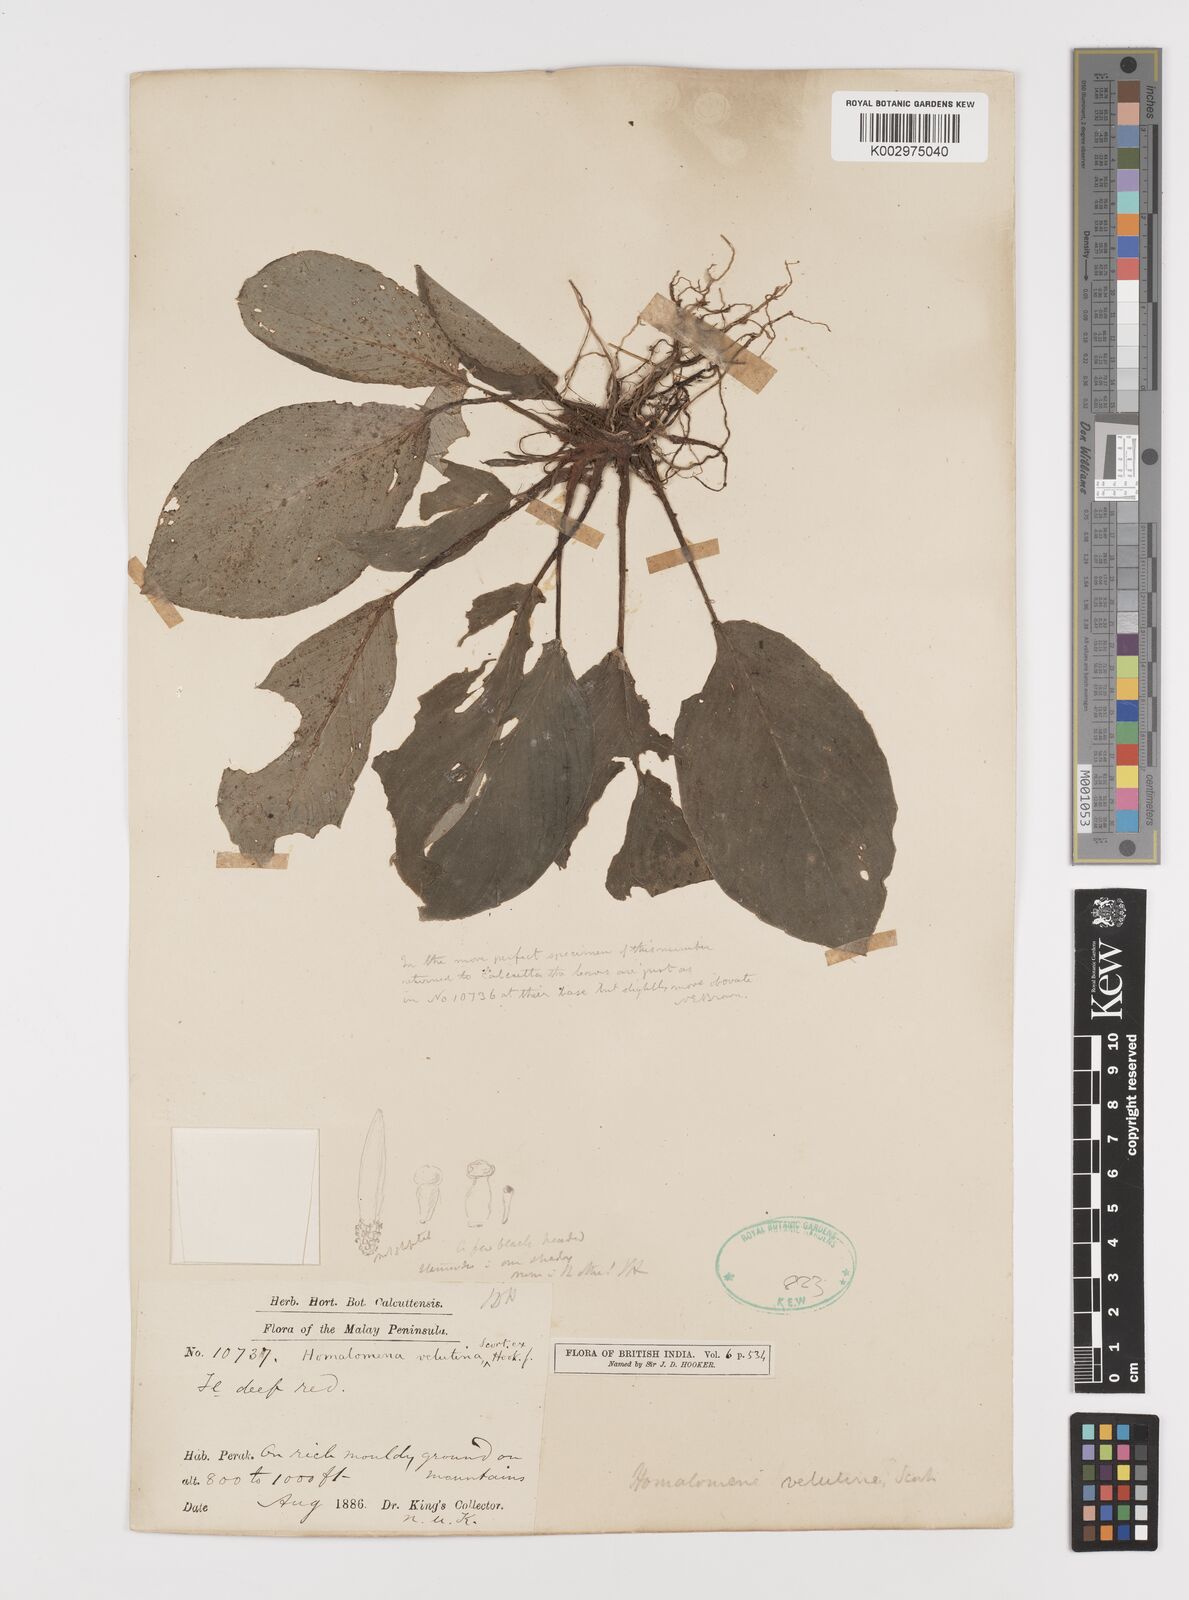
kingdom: Plantae
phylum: Tracheophyta
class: Liliopsida
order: Alismatales
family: Araceae
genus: Homalomena
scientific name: Homalomena humilis
